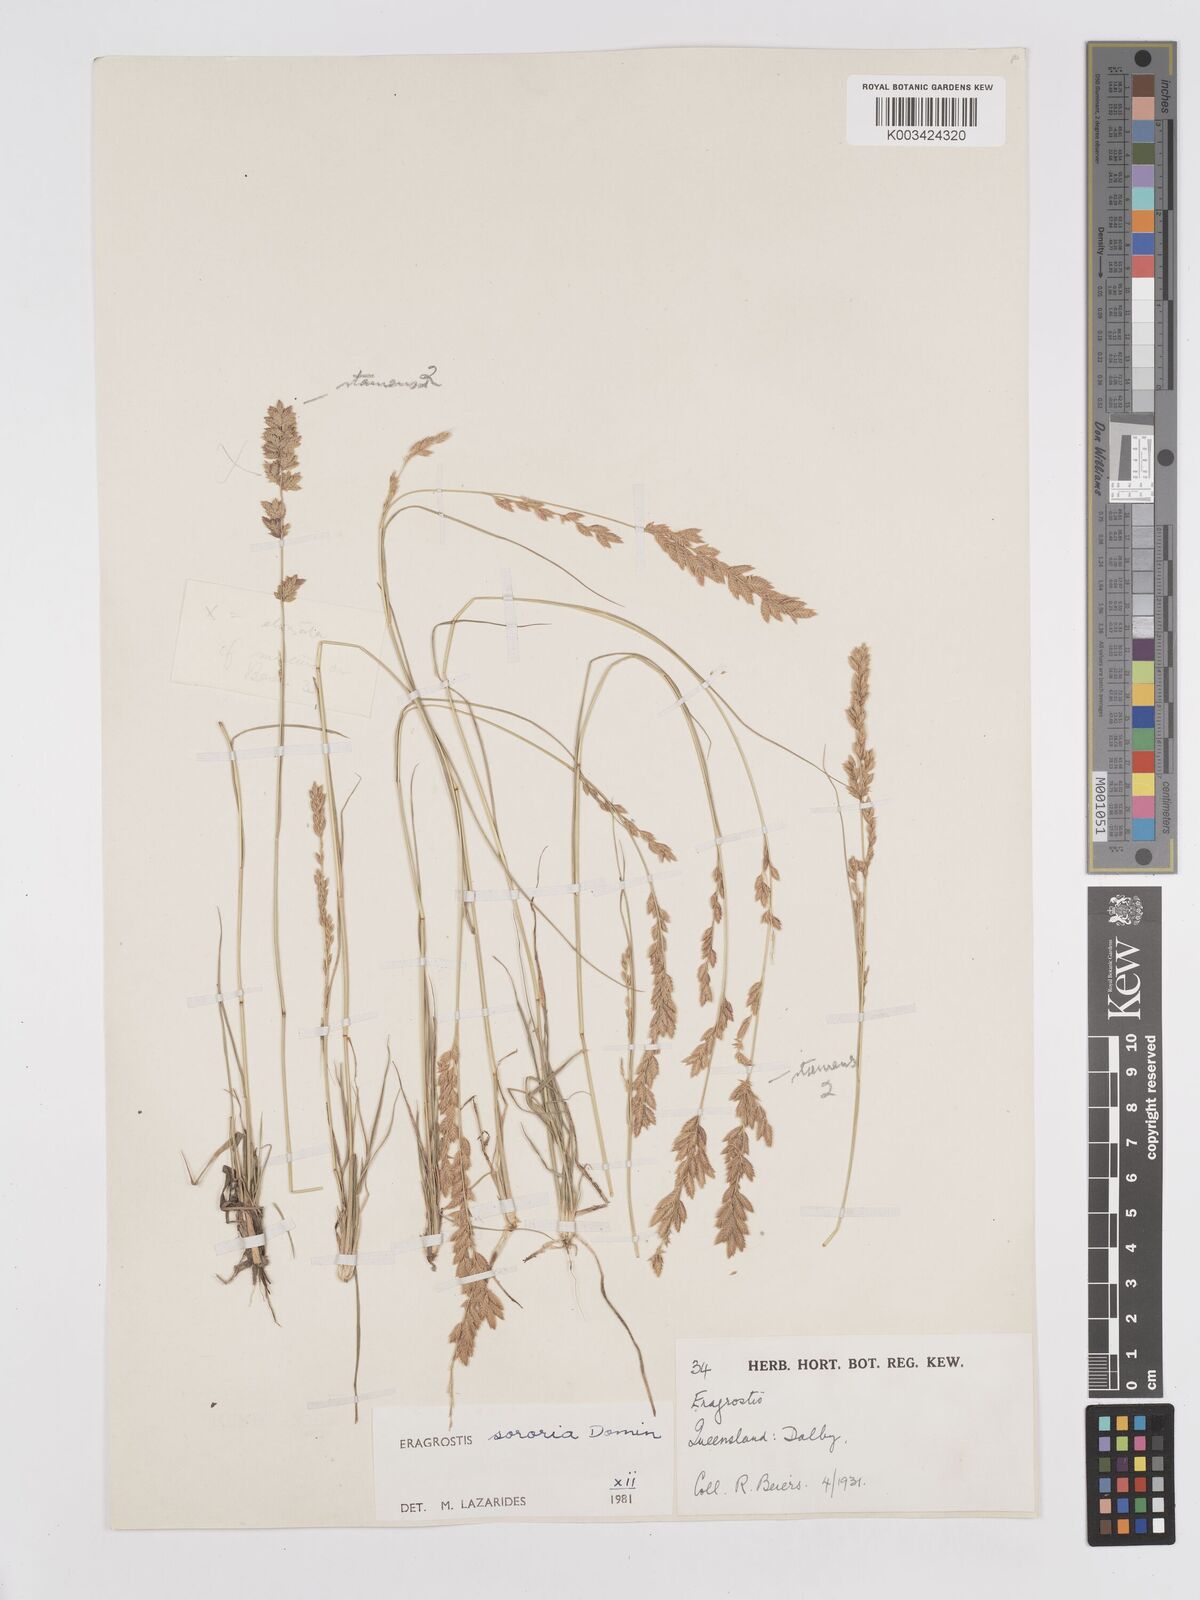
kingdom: Plantae
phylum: Tracheophyta
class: Liliopsida
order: Poales
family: Poaceae
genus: Eragrostis
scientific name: Eragrostis sororia
